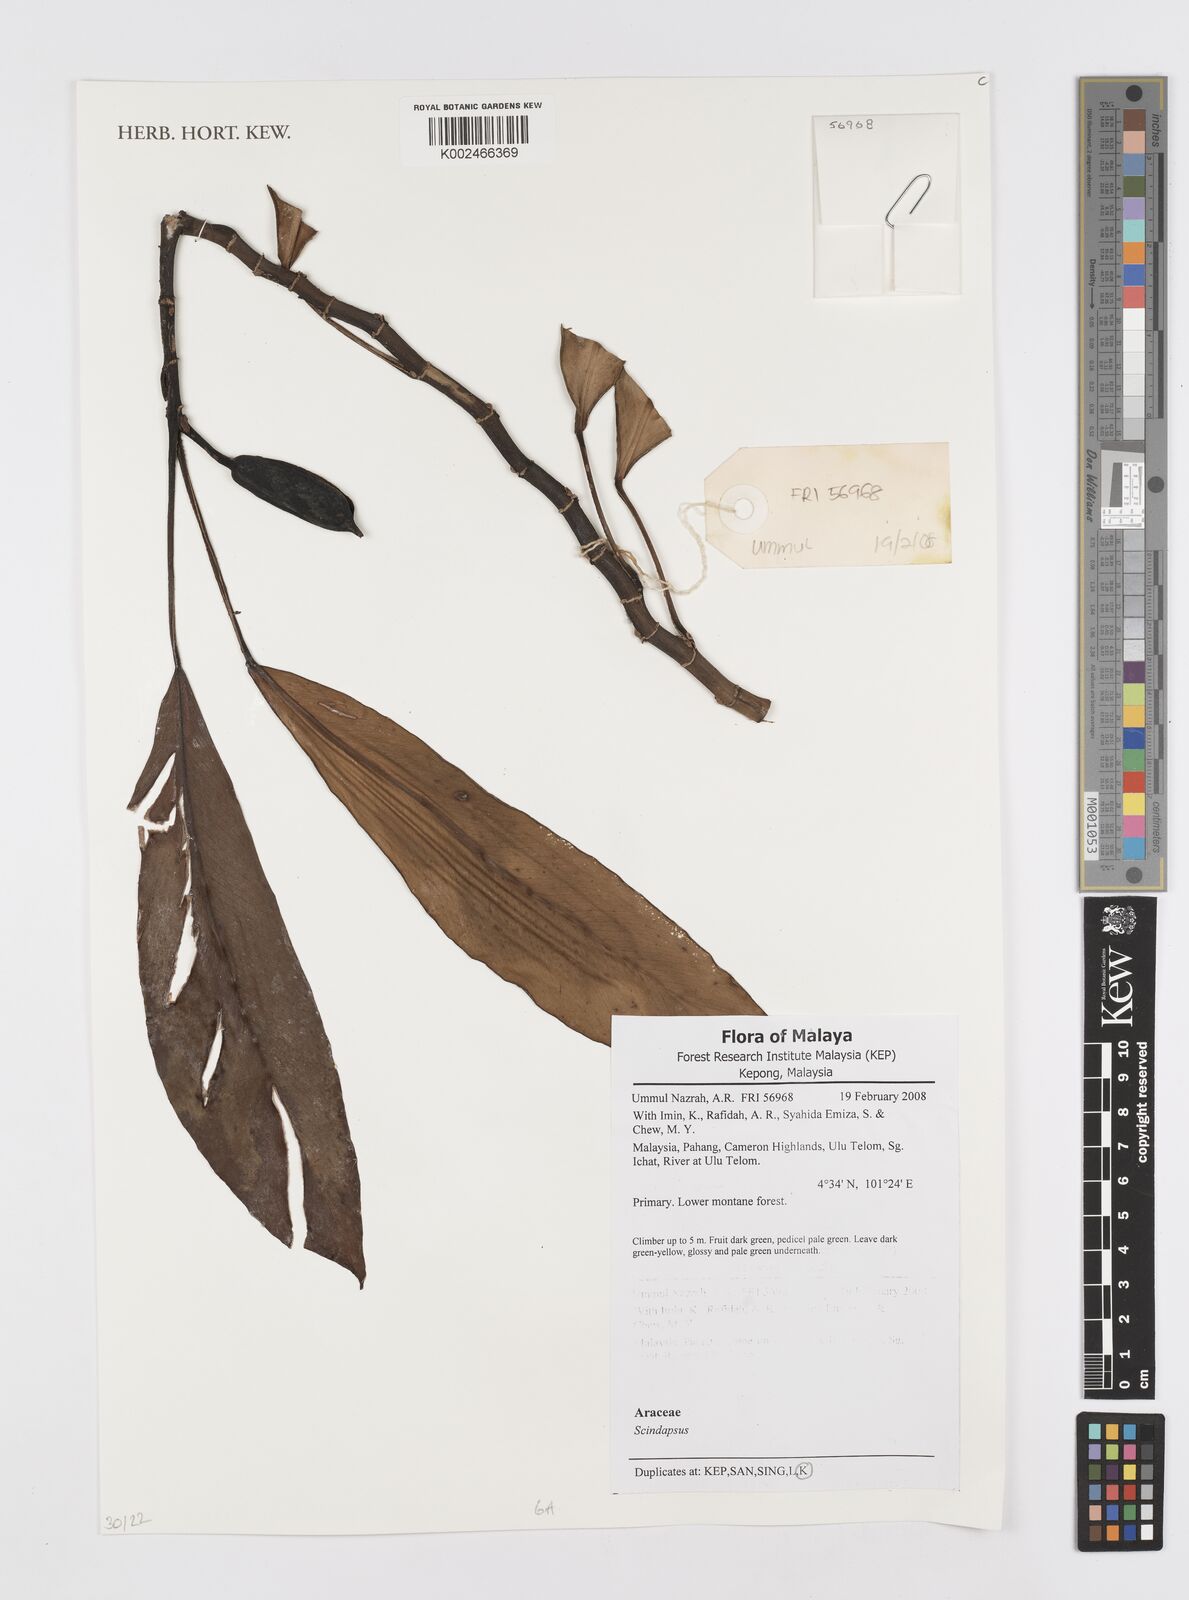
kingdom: Plantae
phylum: Tracheophyta
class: Liliopsida
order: Alismatales
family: Araceae
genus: Scindapsus
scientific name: Scindapsus
